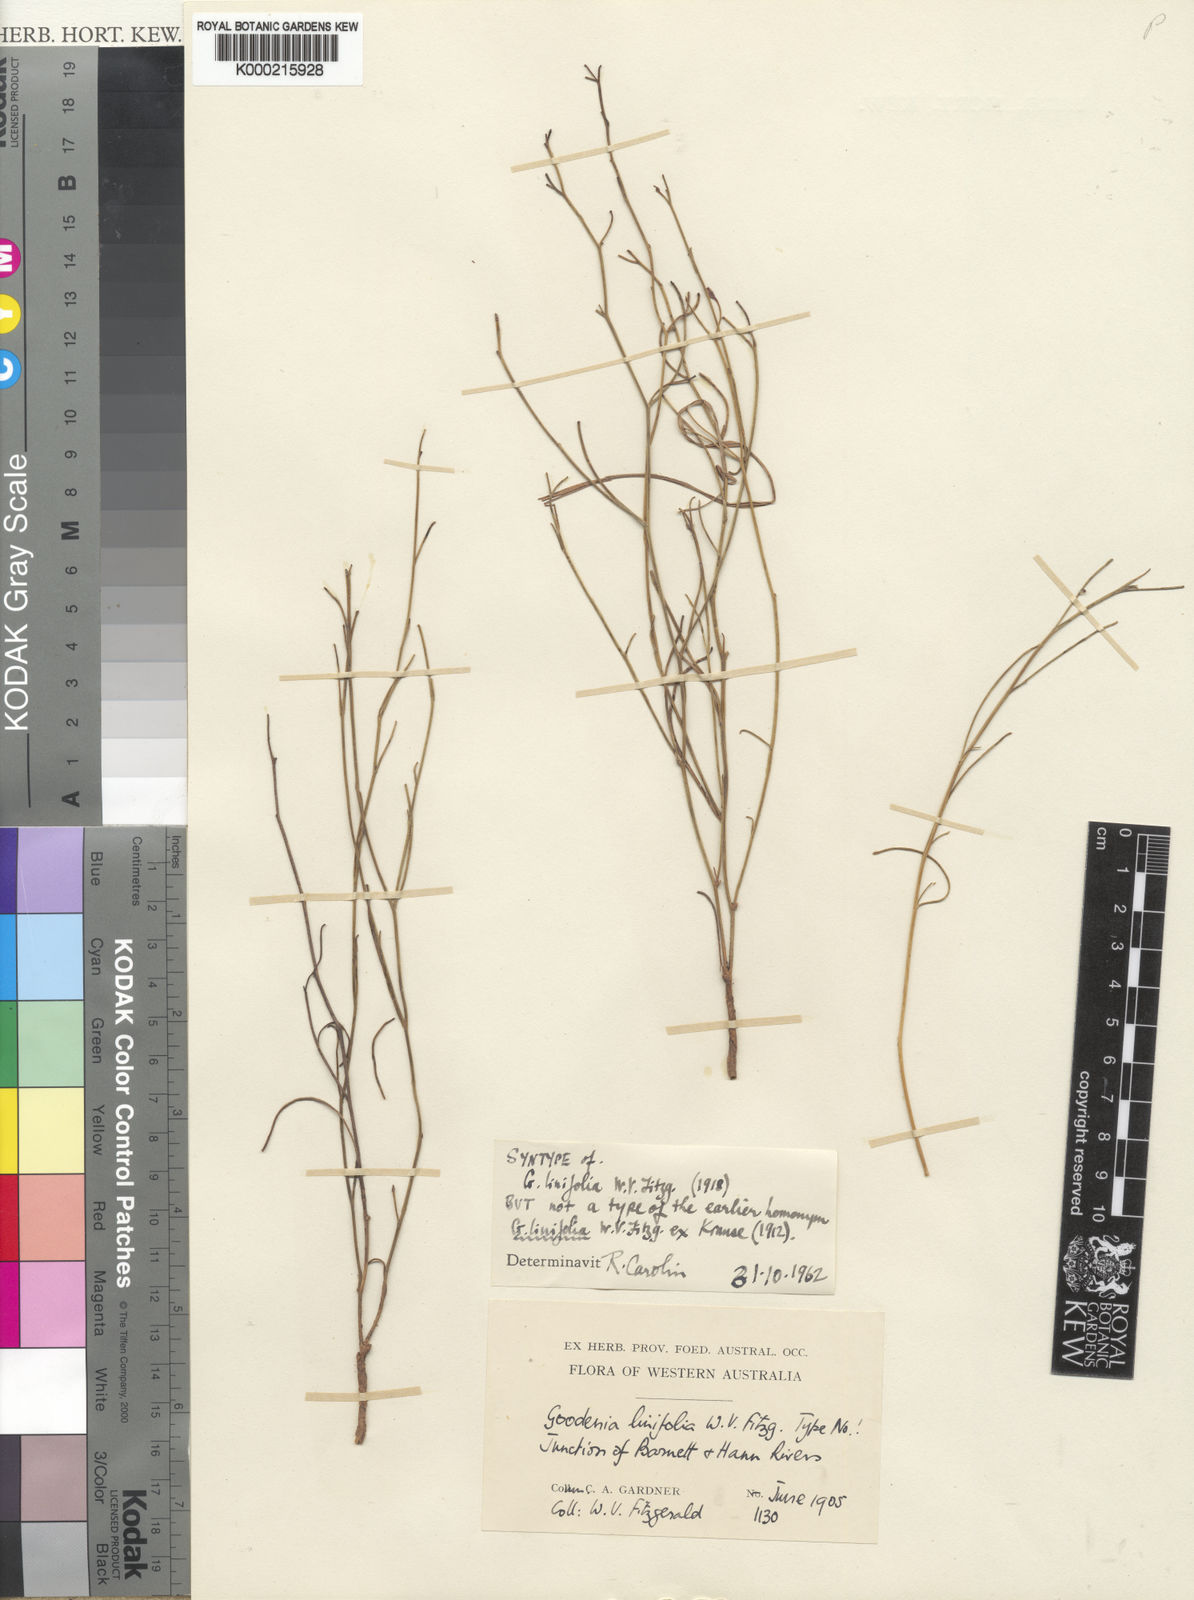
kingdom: Plantae
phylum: Tracheophyta
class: Magnoliopsida
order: Asterales
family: Goodeniaceae
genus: Goodenia
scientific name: Goodenia armitiana
